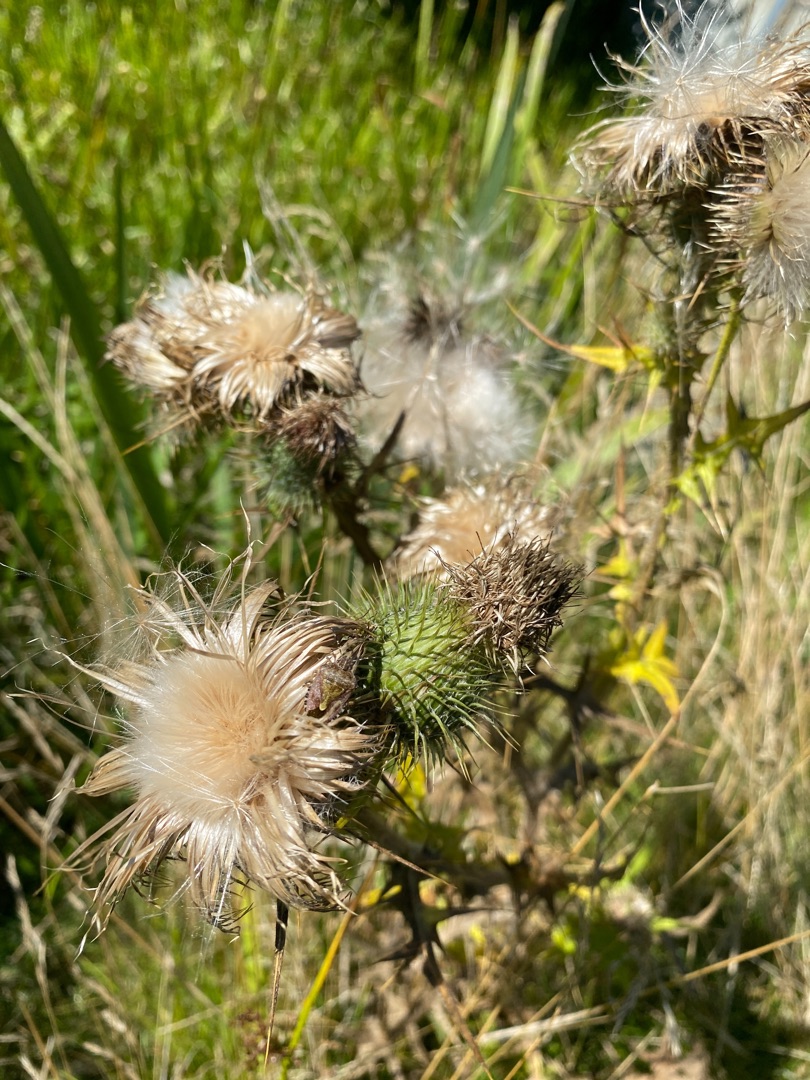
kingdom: Plantae
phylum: Tracheophyta
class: Magnoliopsida
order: Asterales
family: Asteraceae
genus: Cirsium
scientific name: Cirsium vulgare
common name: Horse-tidsel
